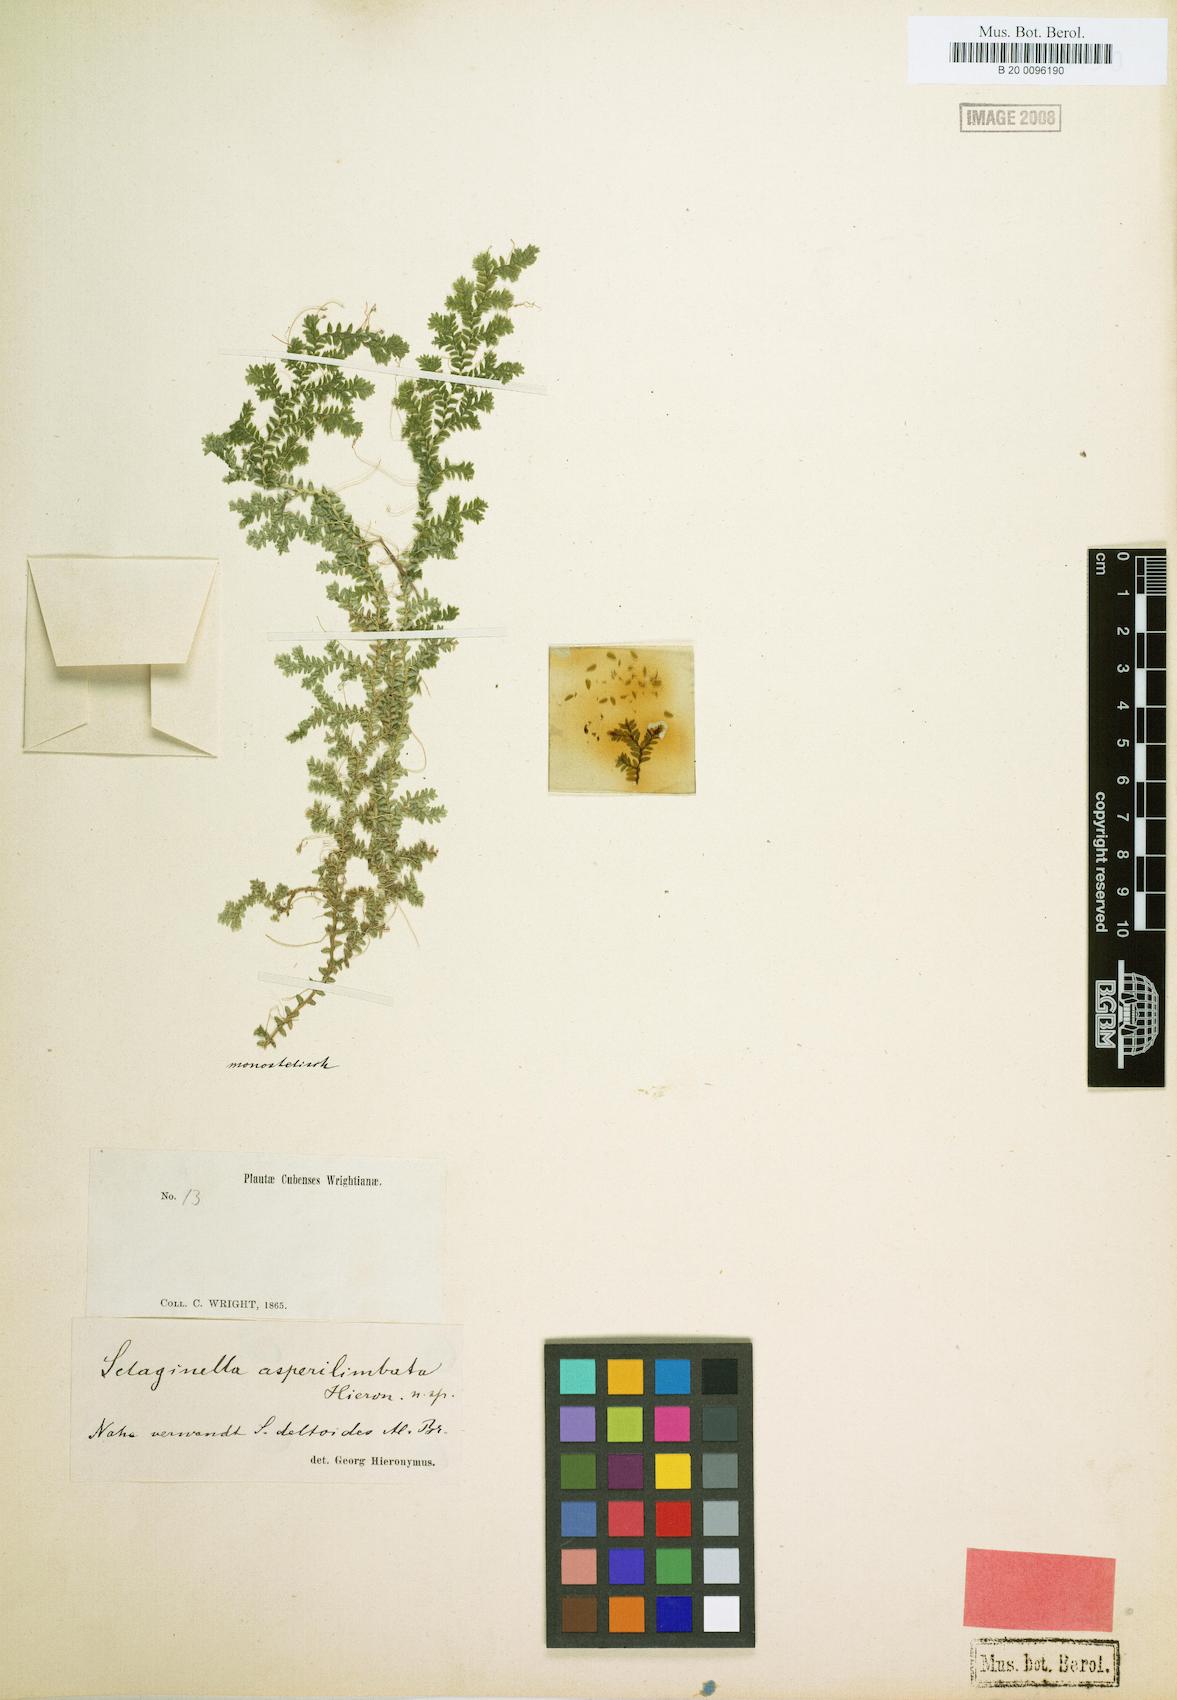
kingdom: Plantae
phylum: Tracheophyta
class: Lycopodiopsida
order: Selaginellales
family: Selaginellaceae
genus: Selaginella
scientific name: Selaginella urquiolae
